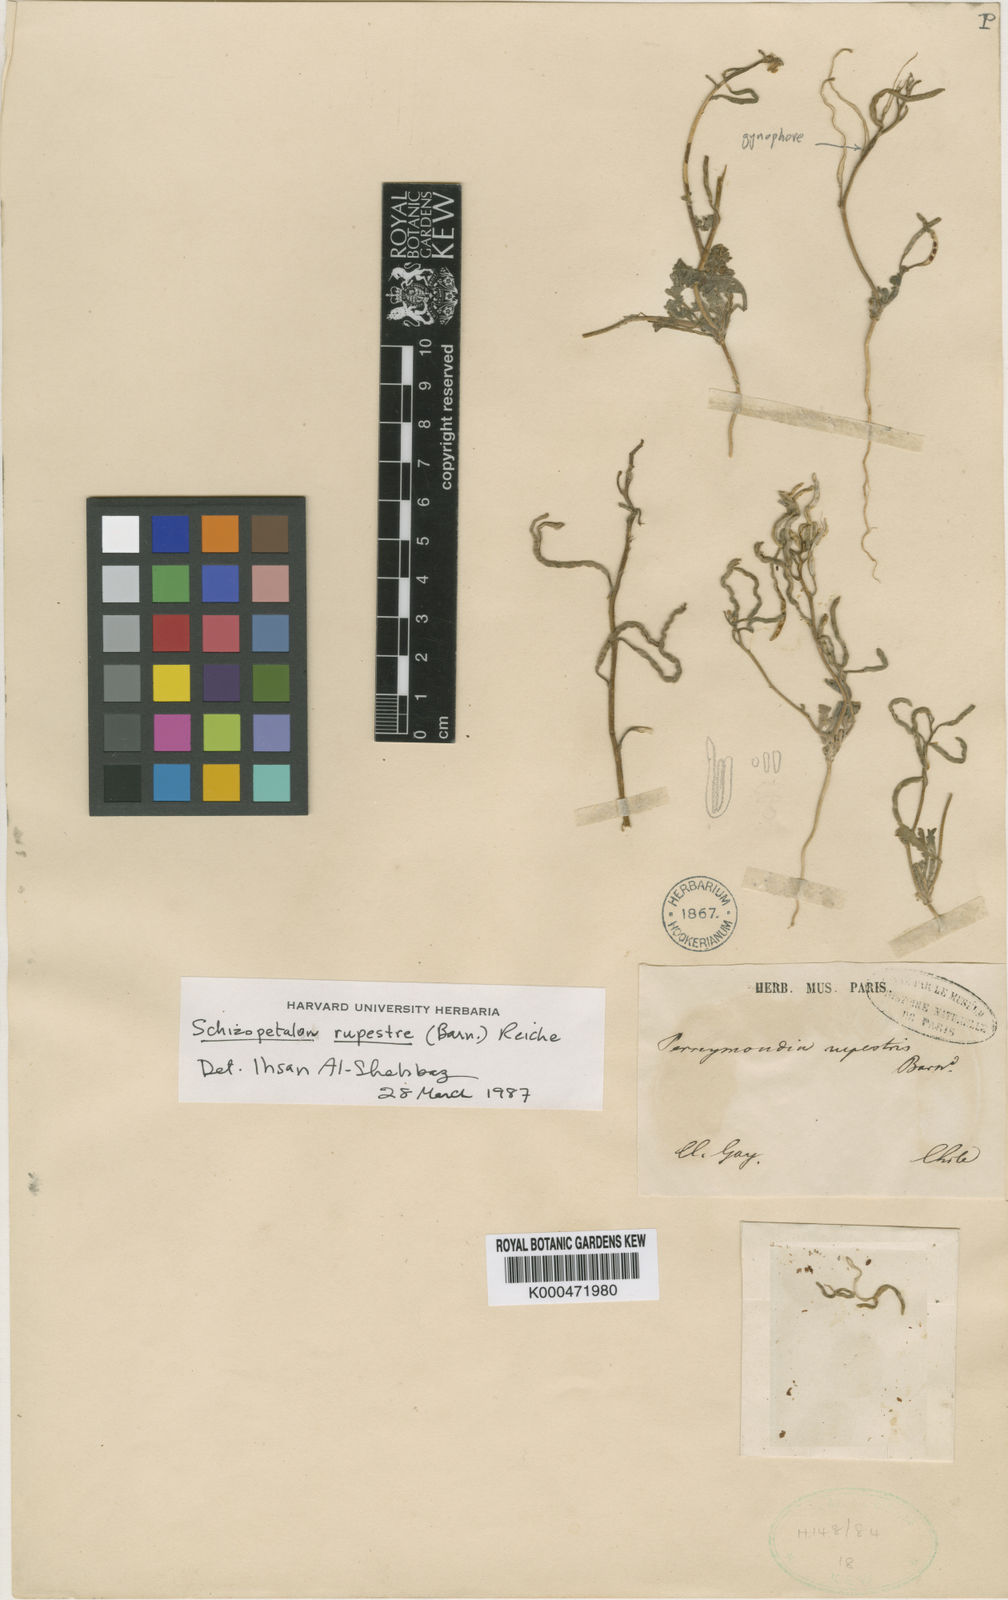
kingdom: Plantae
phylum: Tracheophyta
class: Magnoliopsida
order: Brassicales
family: Brassicaceae
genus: Schizopetalon
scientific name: Schizopetalon
